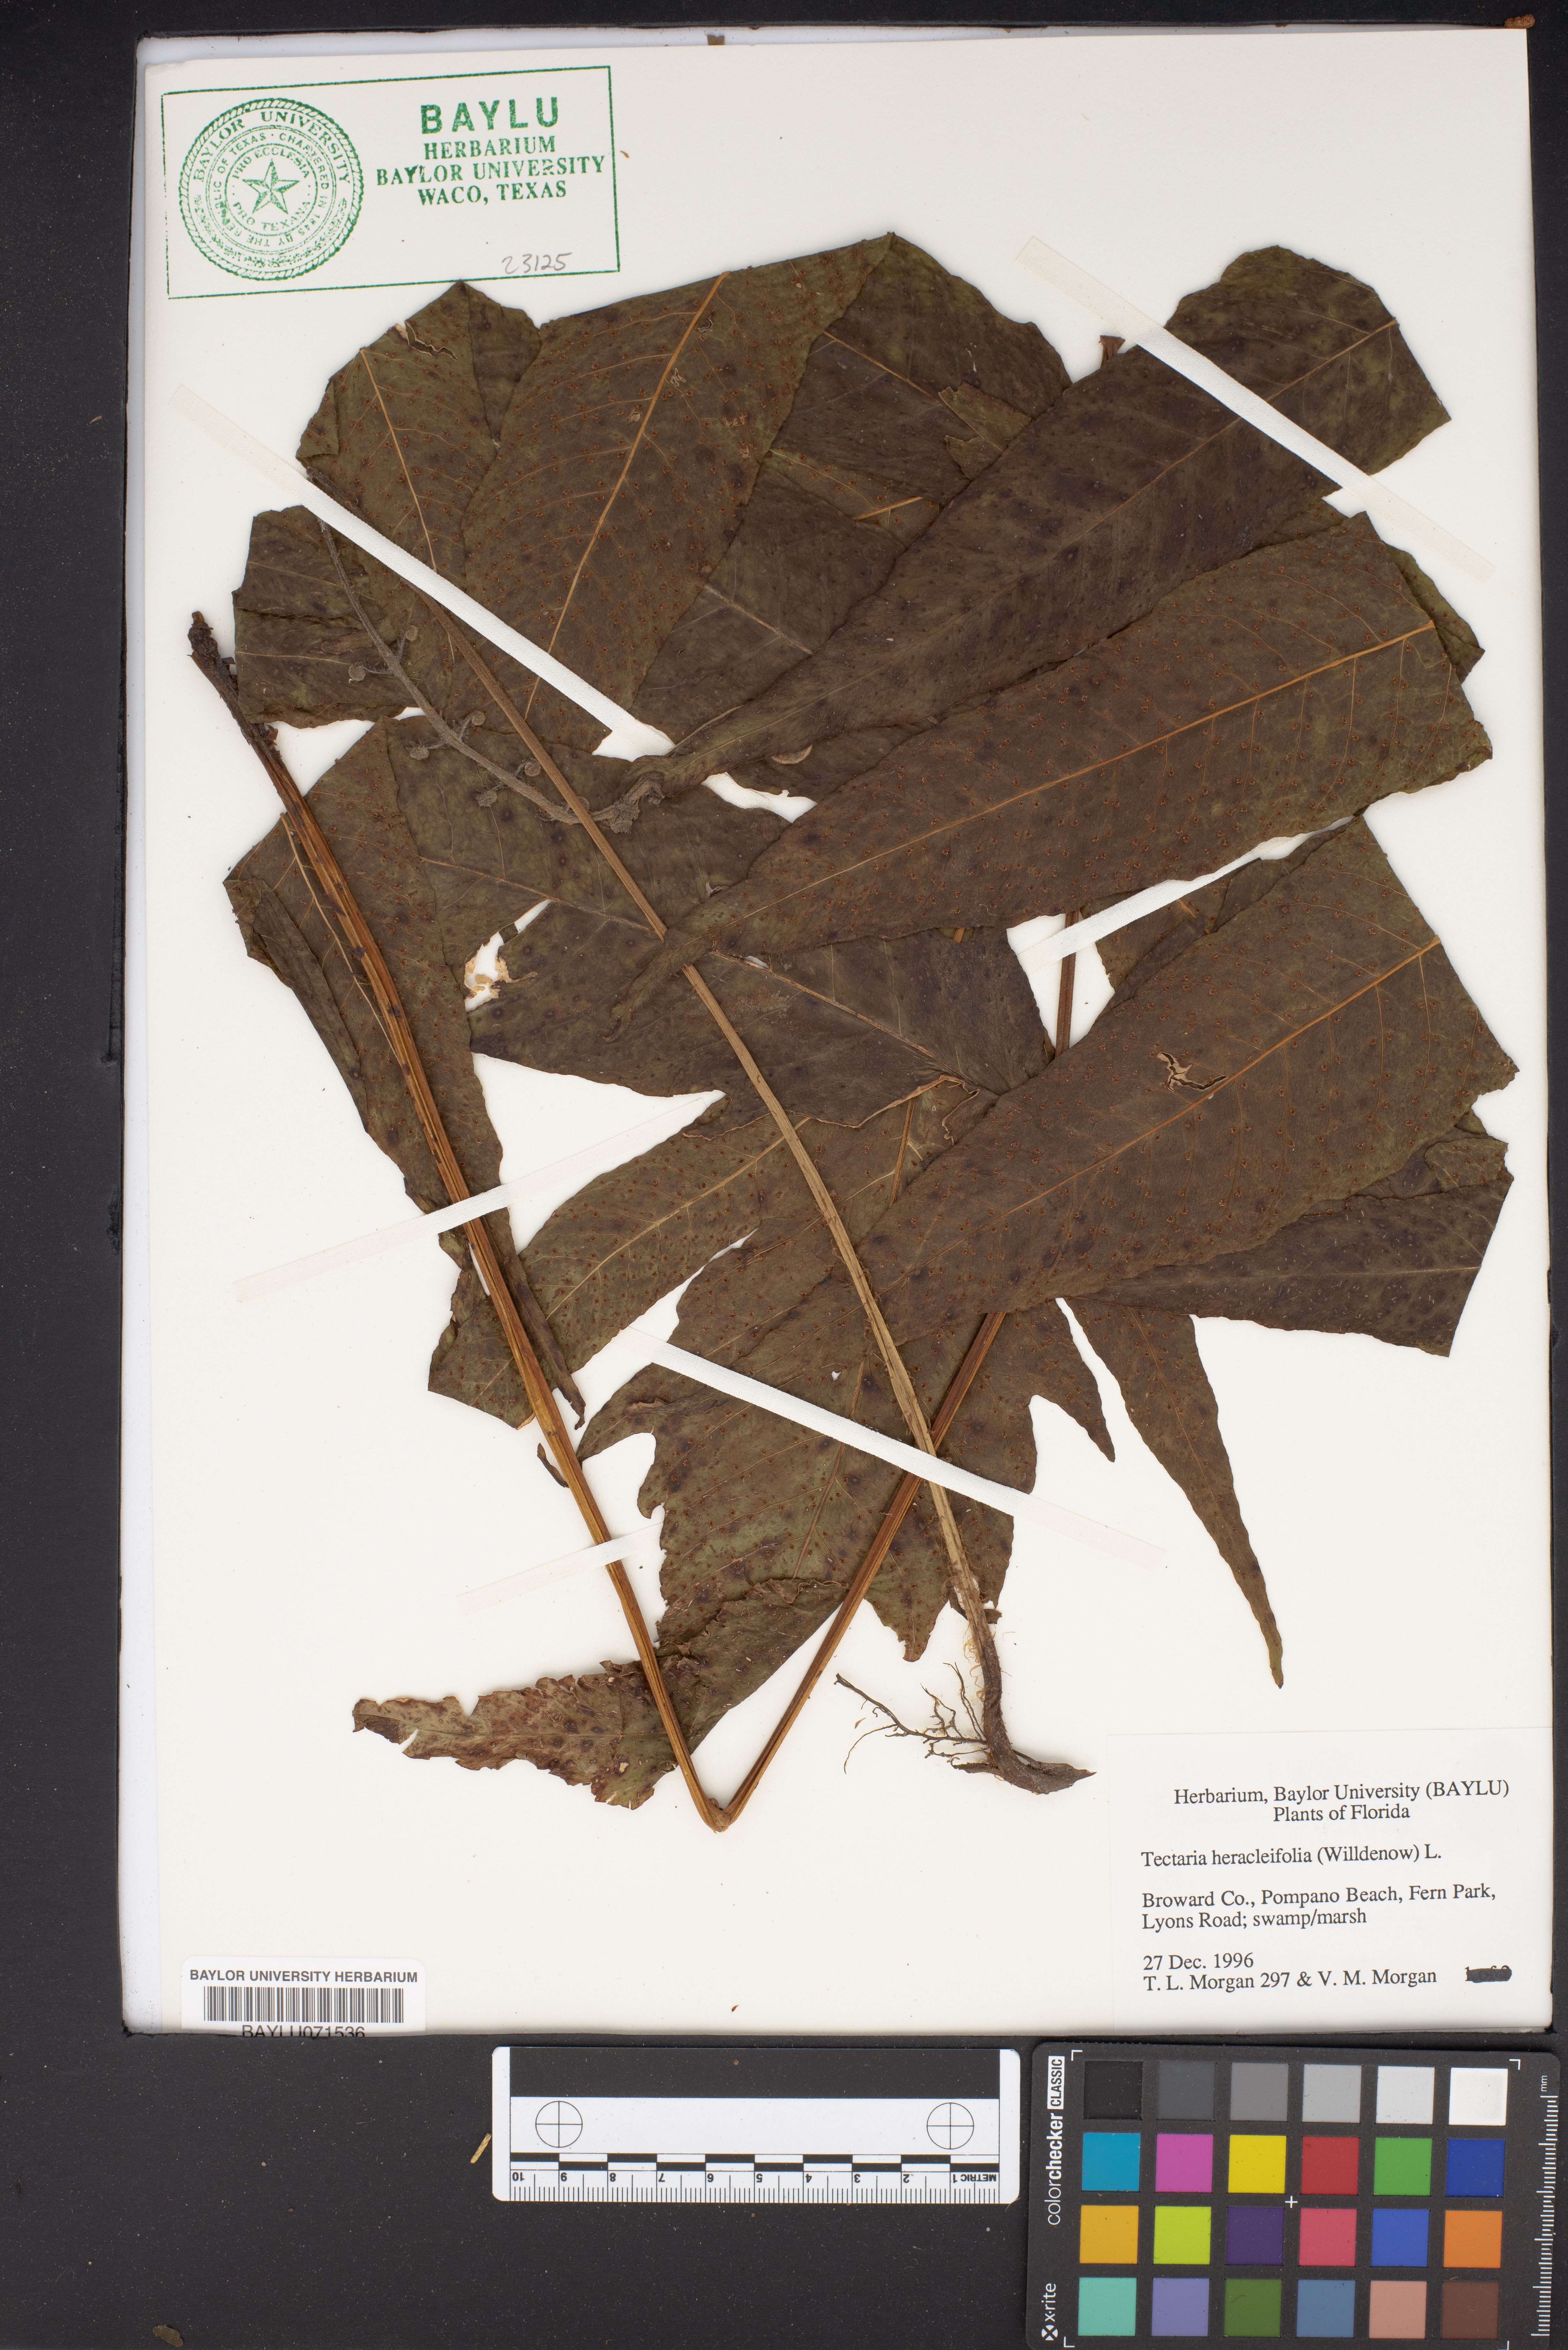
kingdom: Plantae
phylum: Tracheophyta
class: Polypodiopsida
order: Polypodiales
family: Tectariaceae
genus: Tectaria
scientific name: Tectaria heracleifolia
